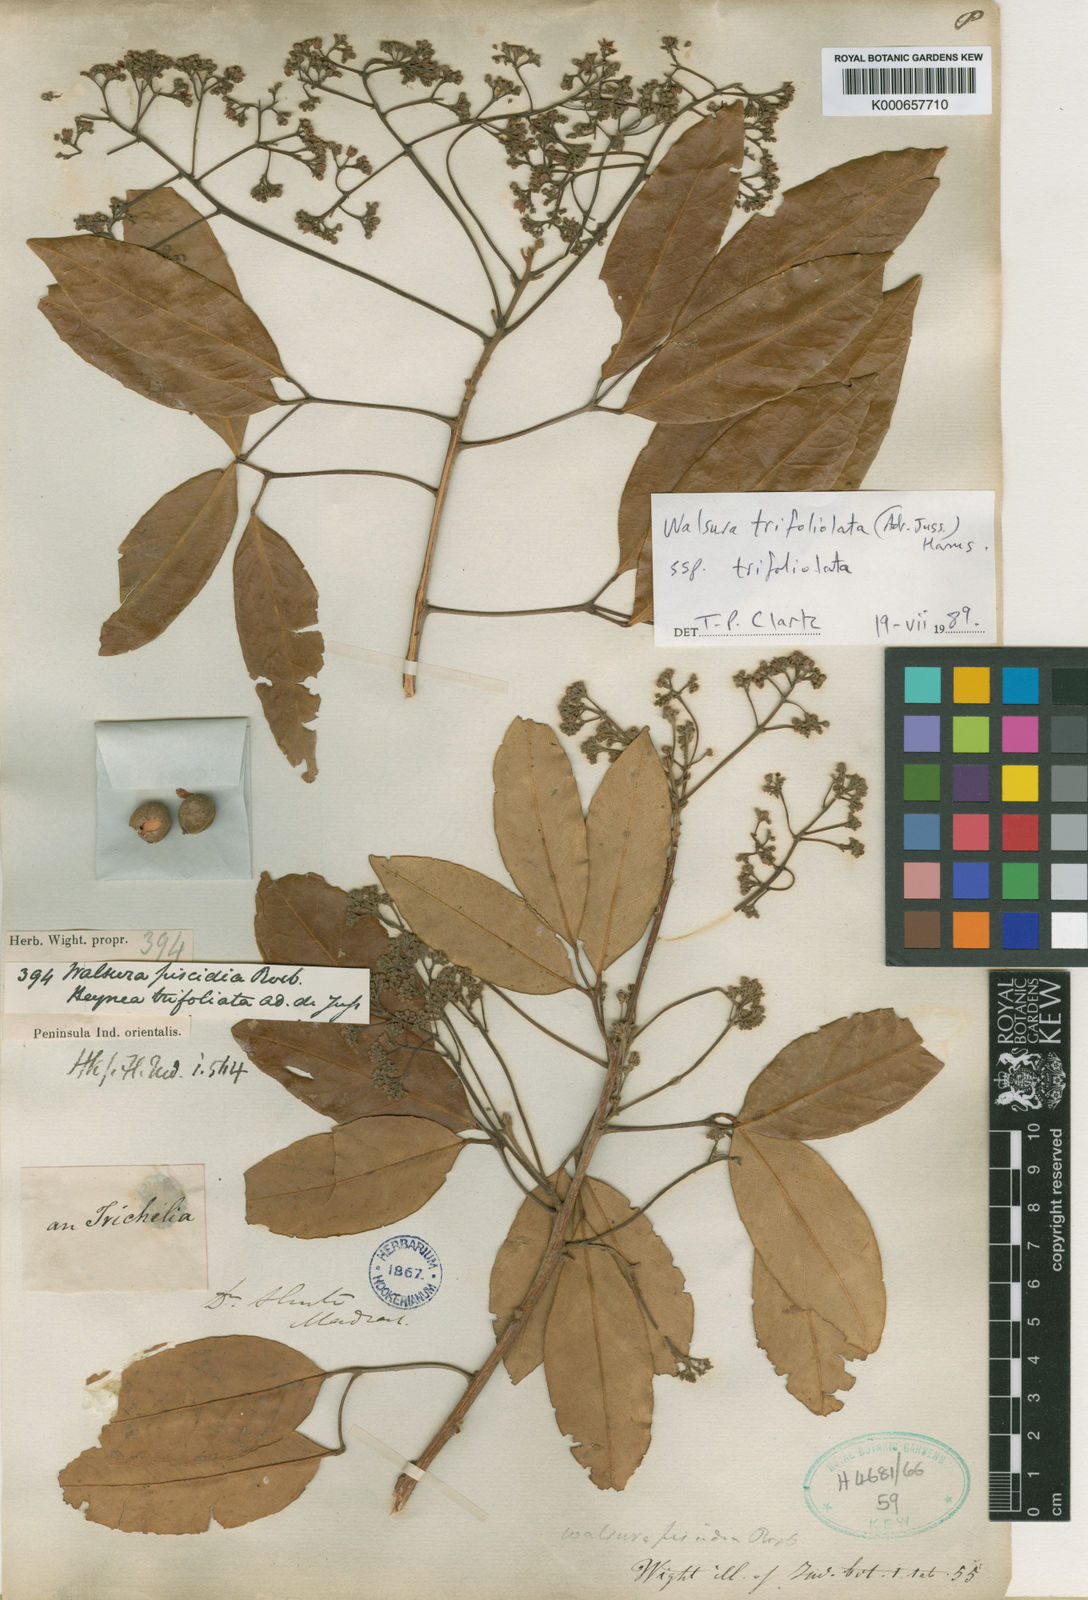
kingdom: Plantae
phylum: Tracheophyta
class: Magnoliopsida
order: Sapindales
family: Meliaceae
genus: Walsura
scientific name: Walsura trifoliolata
